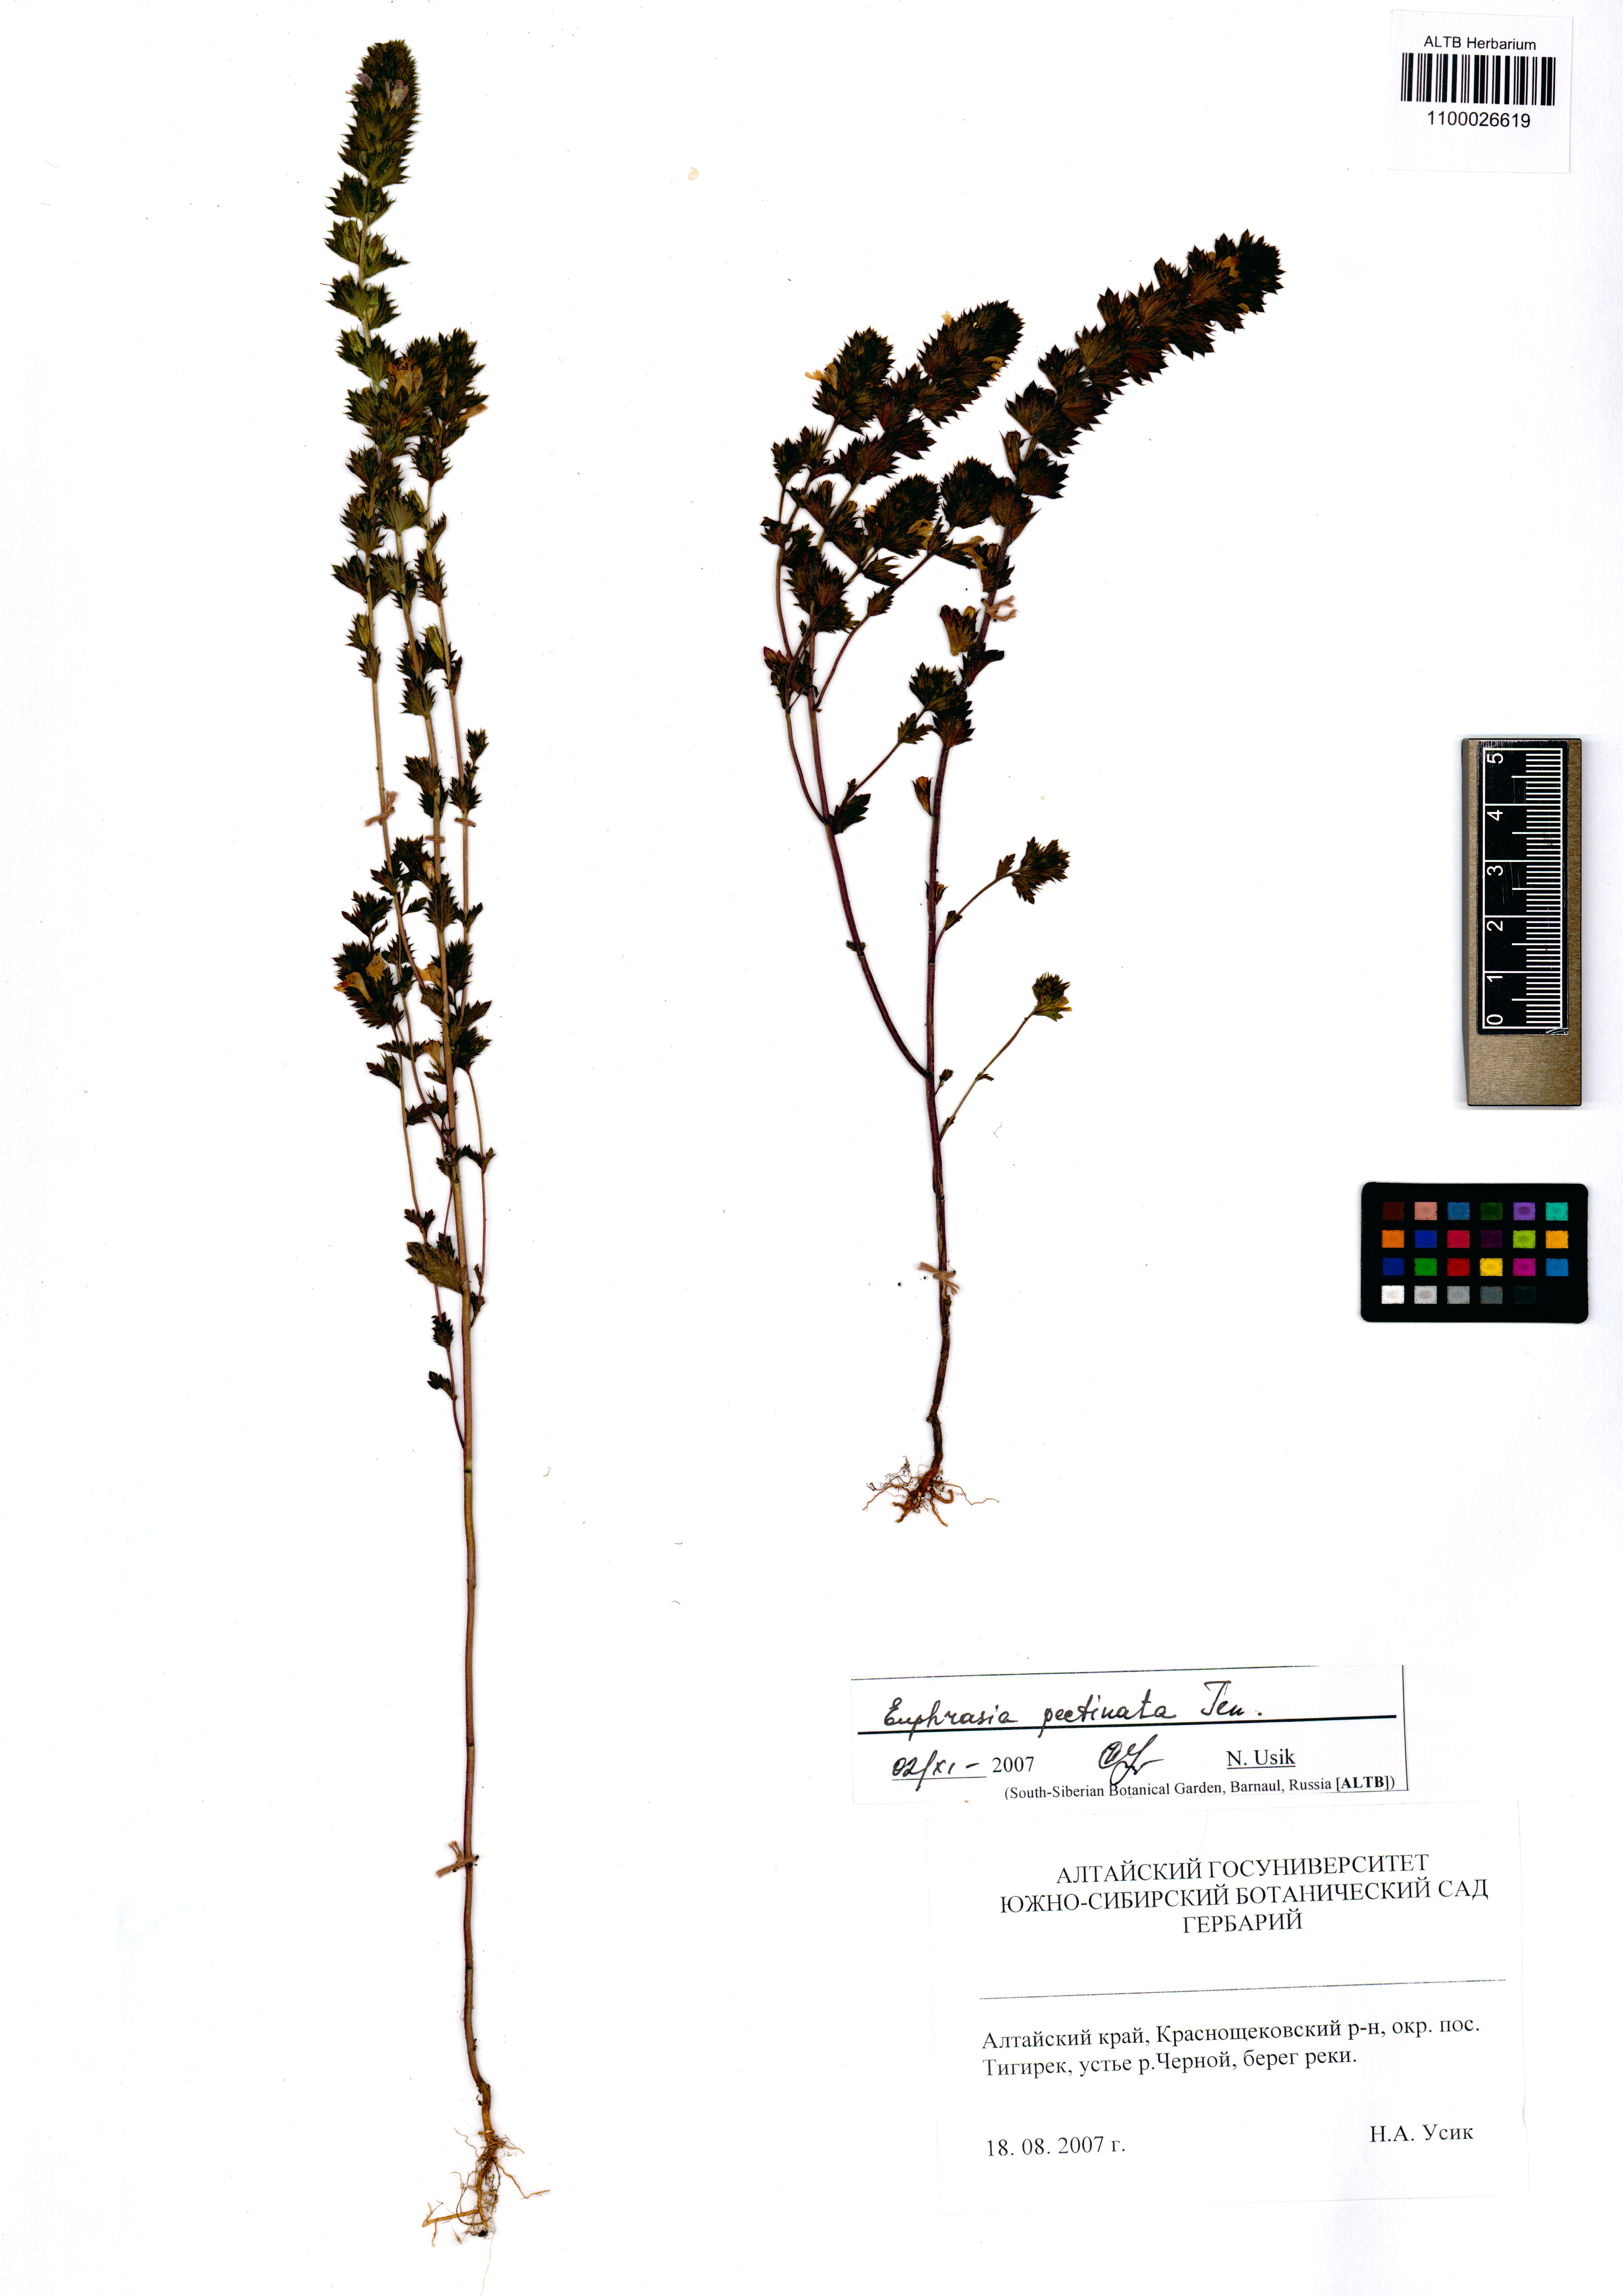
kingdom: Plantae
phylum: Tracheophyta
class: Magnoliopsida
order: Lamiales
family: Orobanchaceae
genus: Euphrasia
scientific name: Euphrasia pectinata
